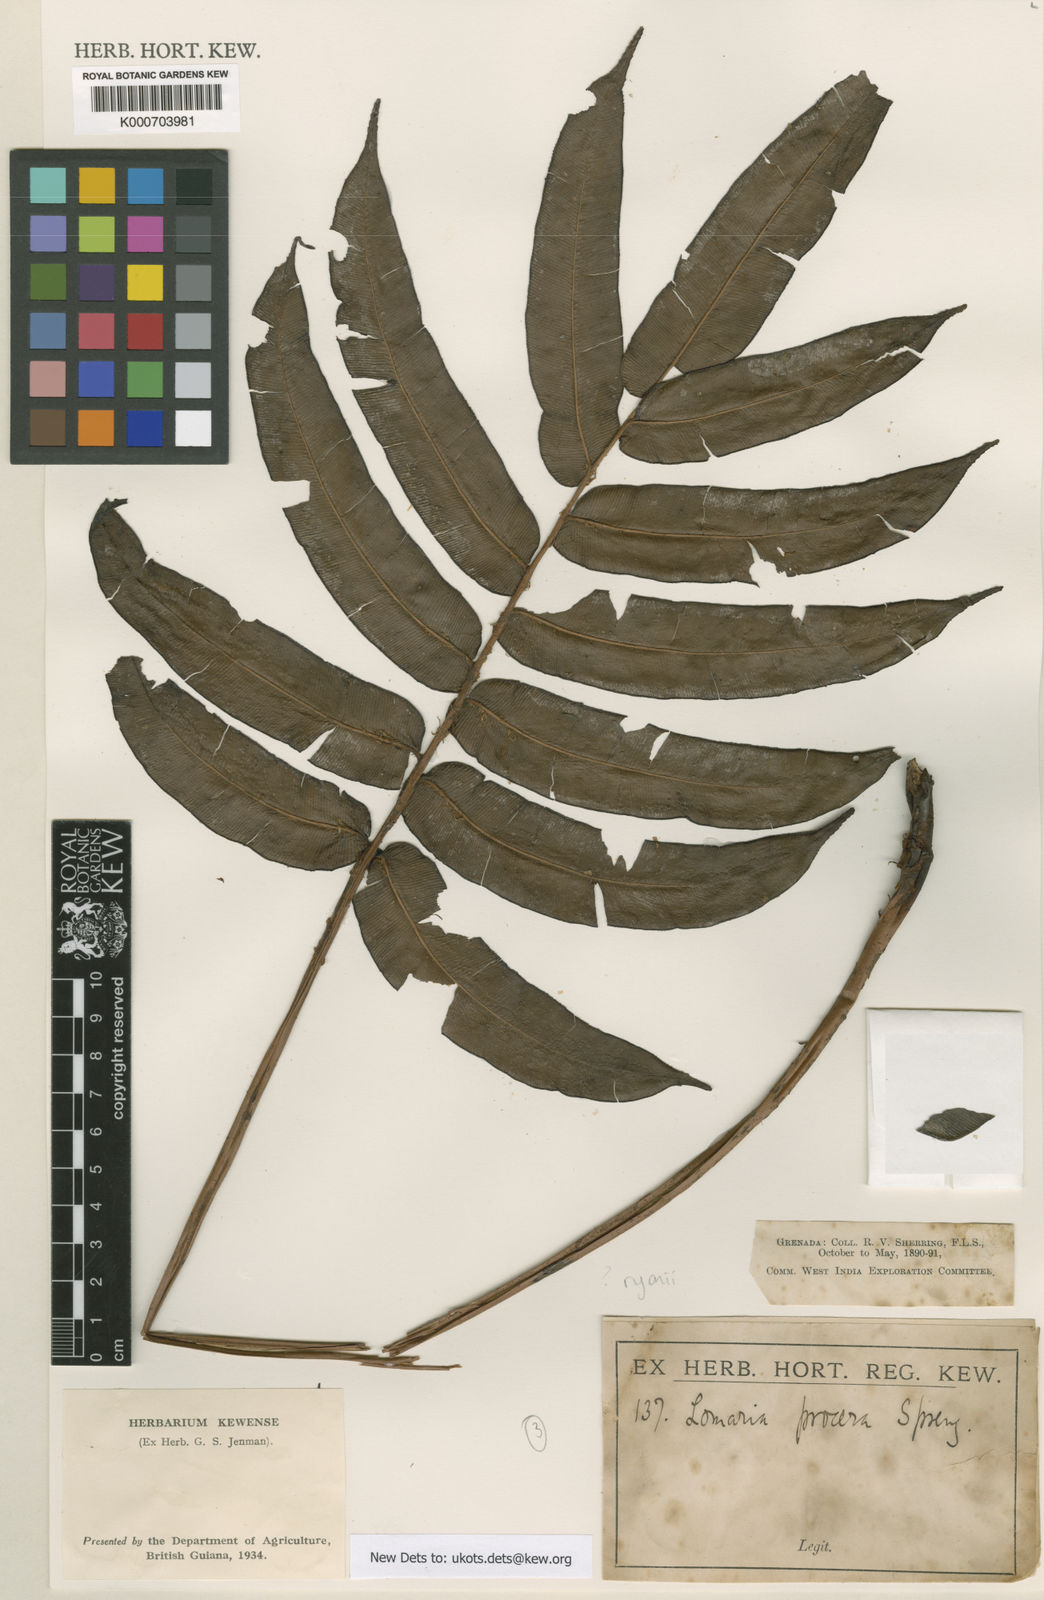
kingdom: Plantae
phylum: Tracheophyta
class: Liliopsida
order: Poales
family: Cyperaceae
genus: Cyperus
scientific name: Cyperus margaritaceus
